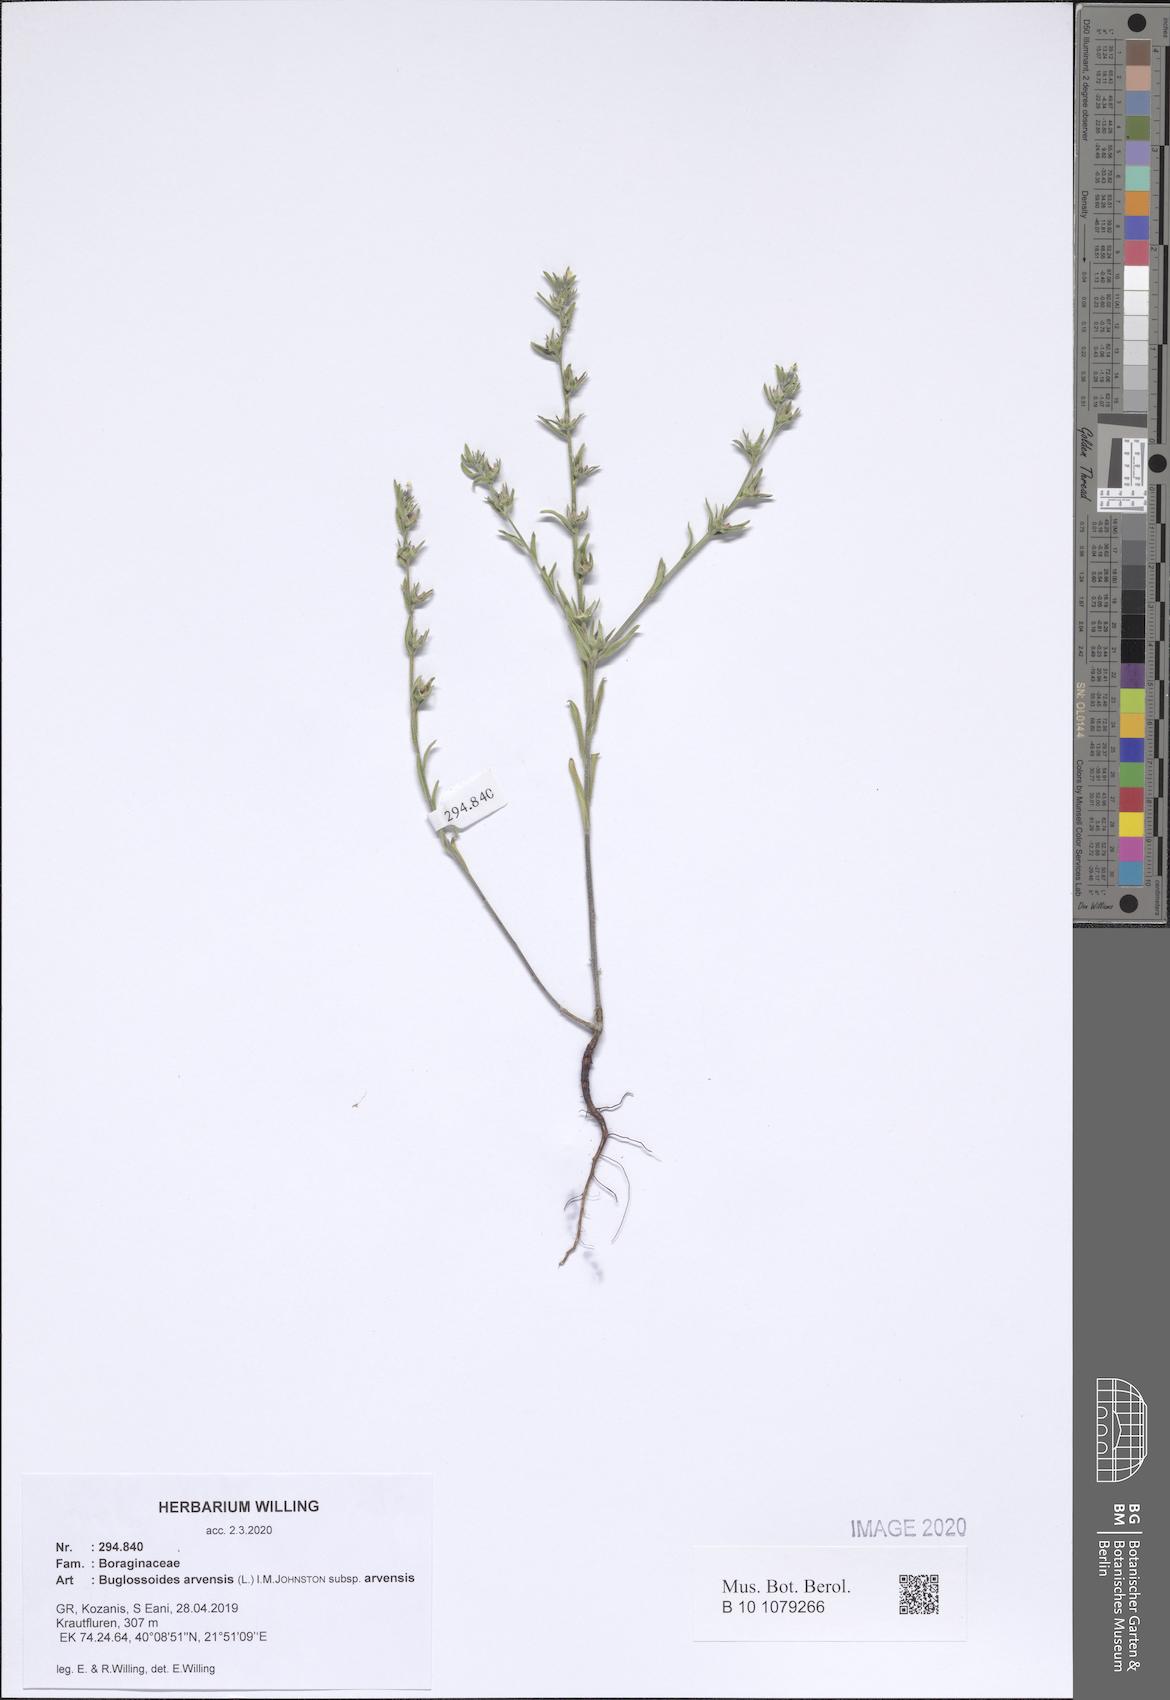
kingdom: Plantae
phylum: Tracheophyta
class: Magnoliopsida
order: Boraginales
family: Boraginaceae
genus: Buglossoides
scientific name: Buglossoides arvensis
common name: Corn gromwell
